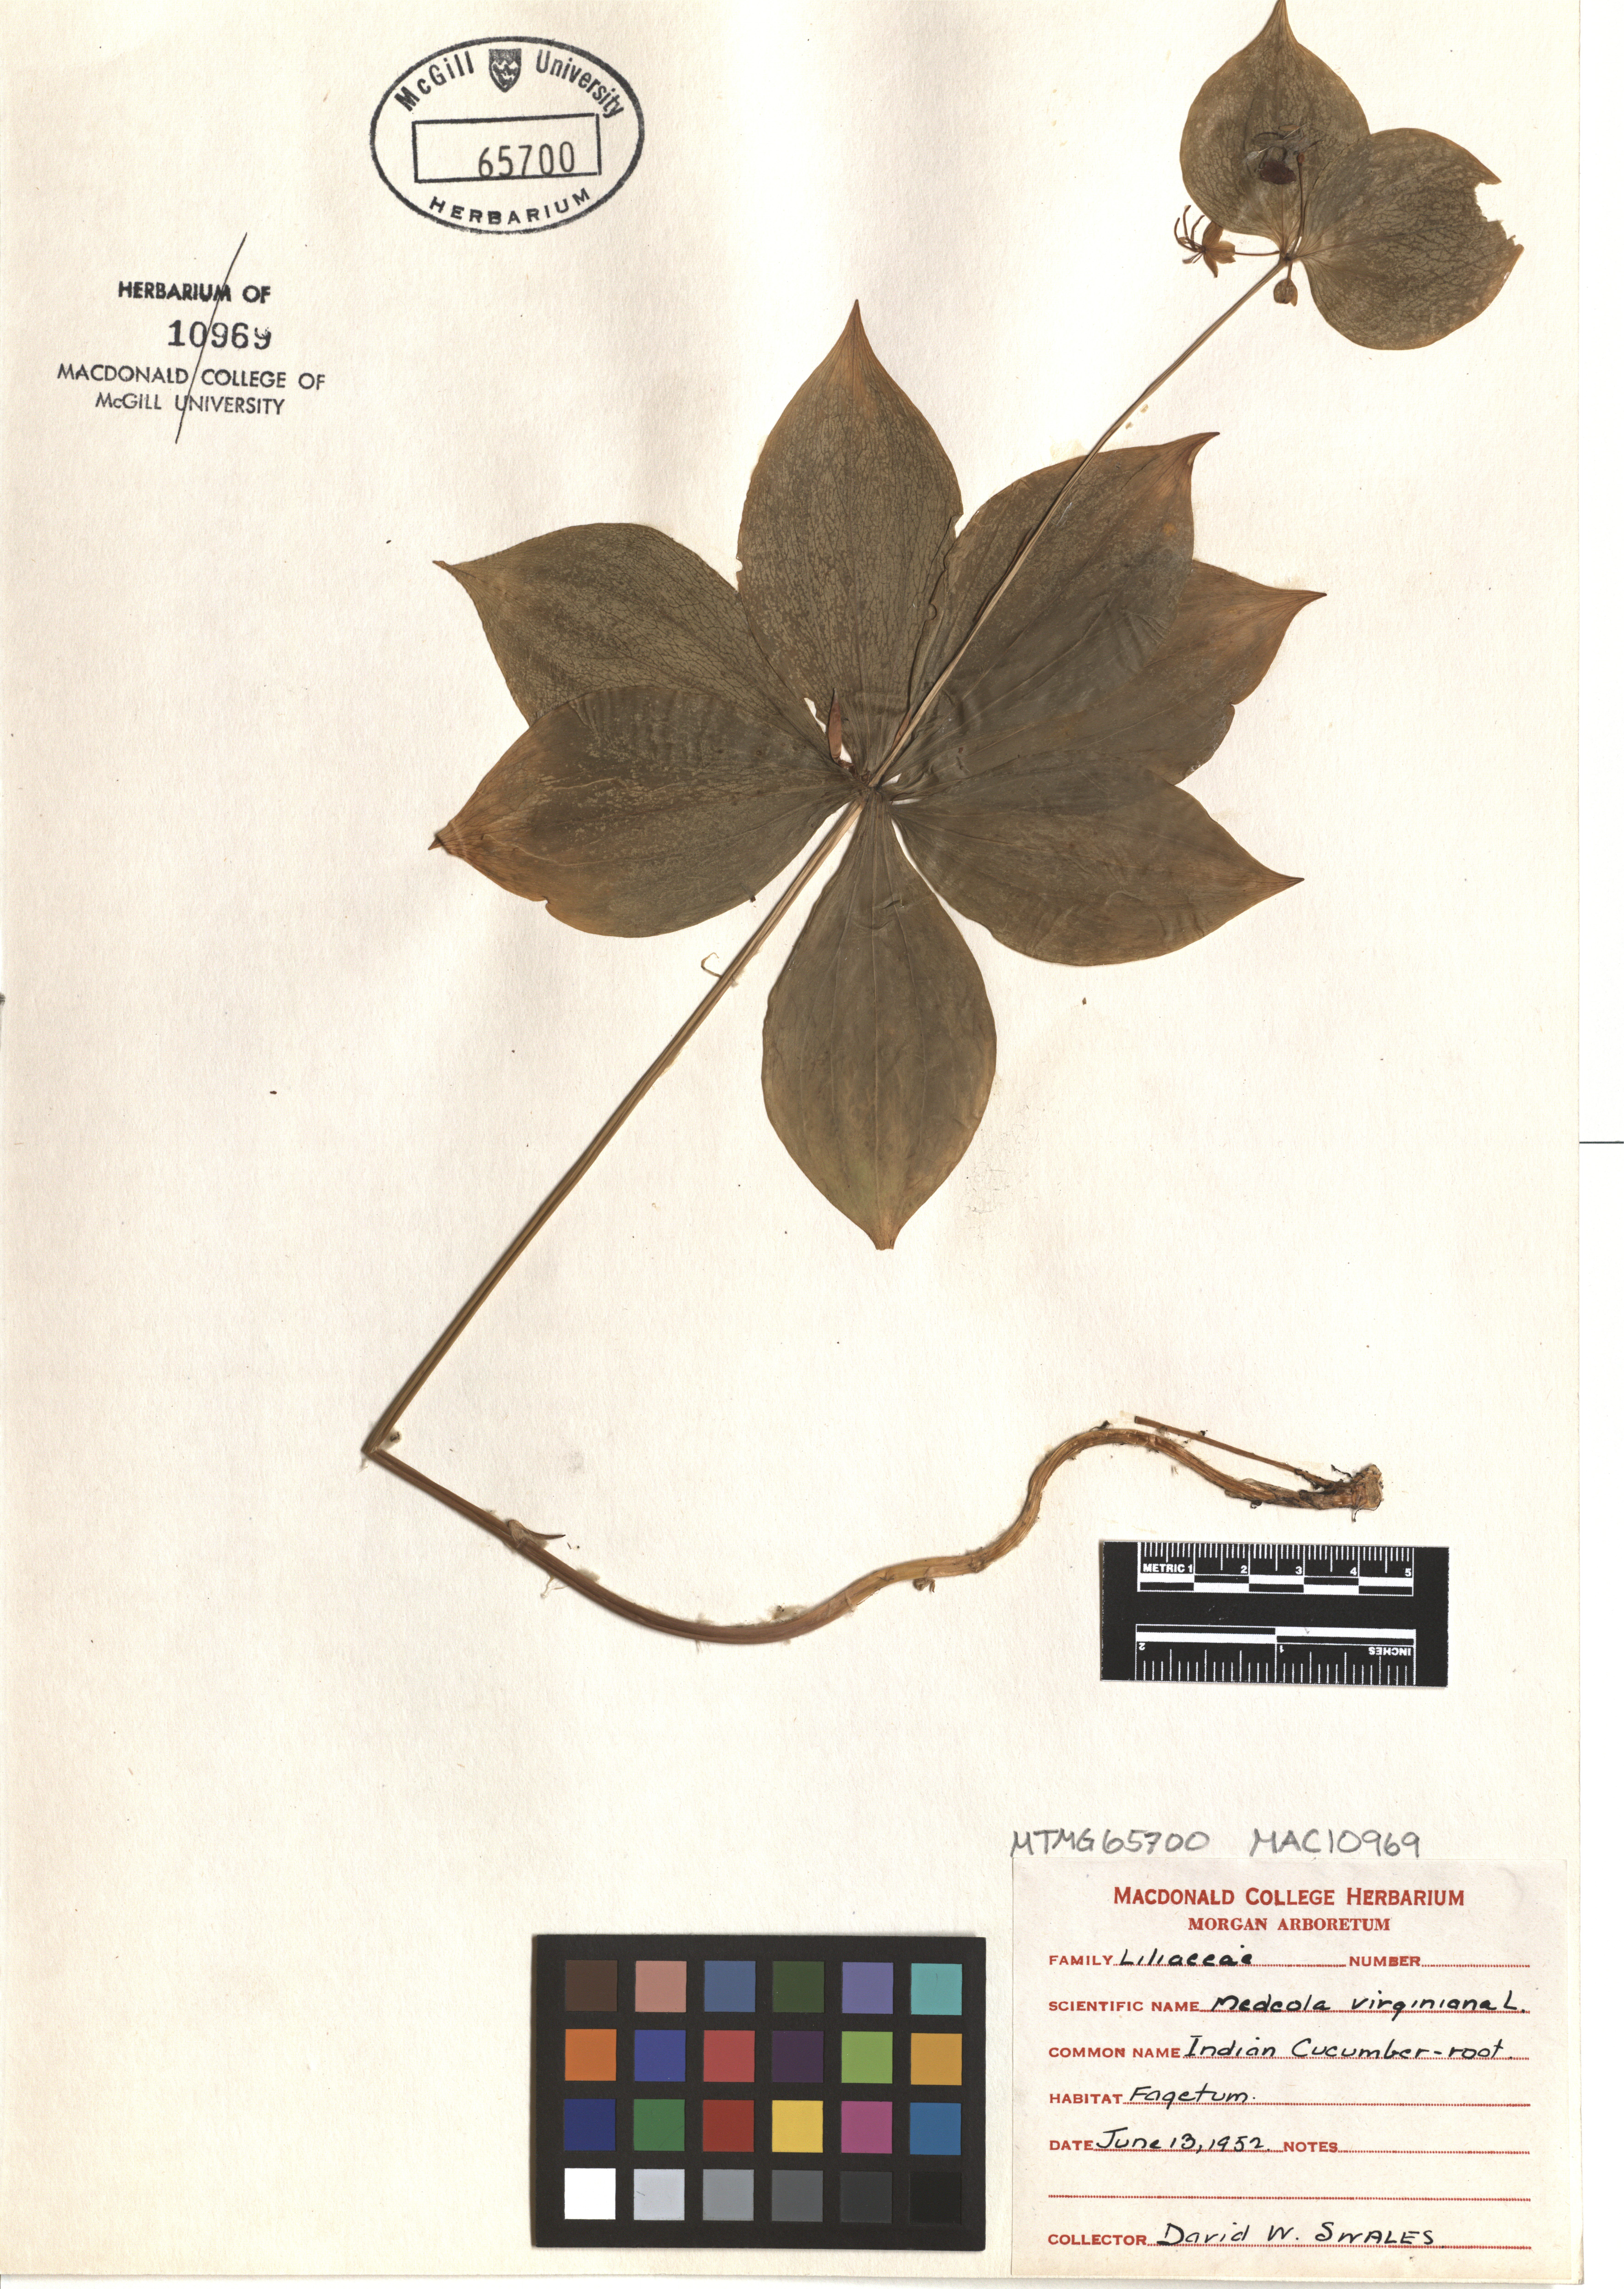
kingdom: Plantae
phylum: Tracheophyta
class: Liliopsida
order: Liliales
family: Liliaceae
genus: Medeola
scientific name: Medeola virginiana
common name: Indian cucumber-root
